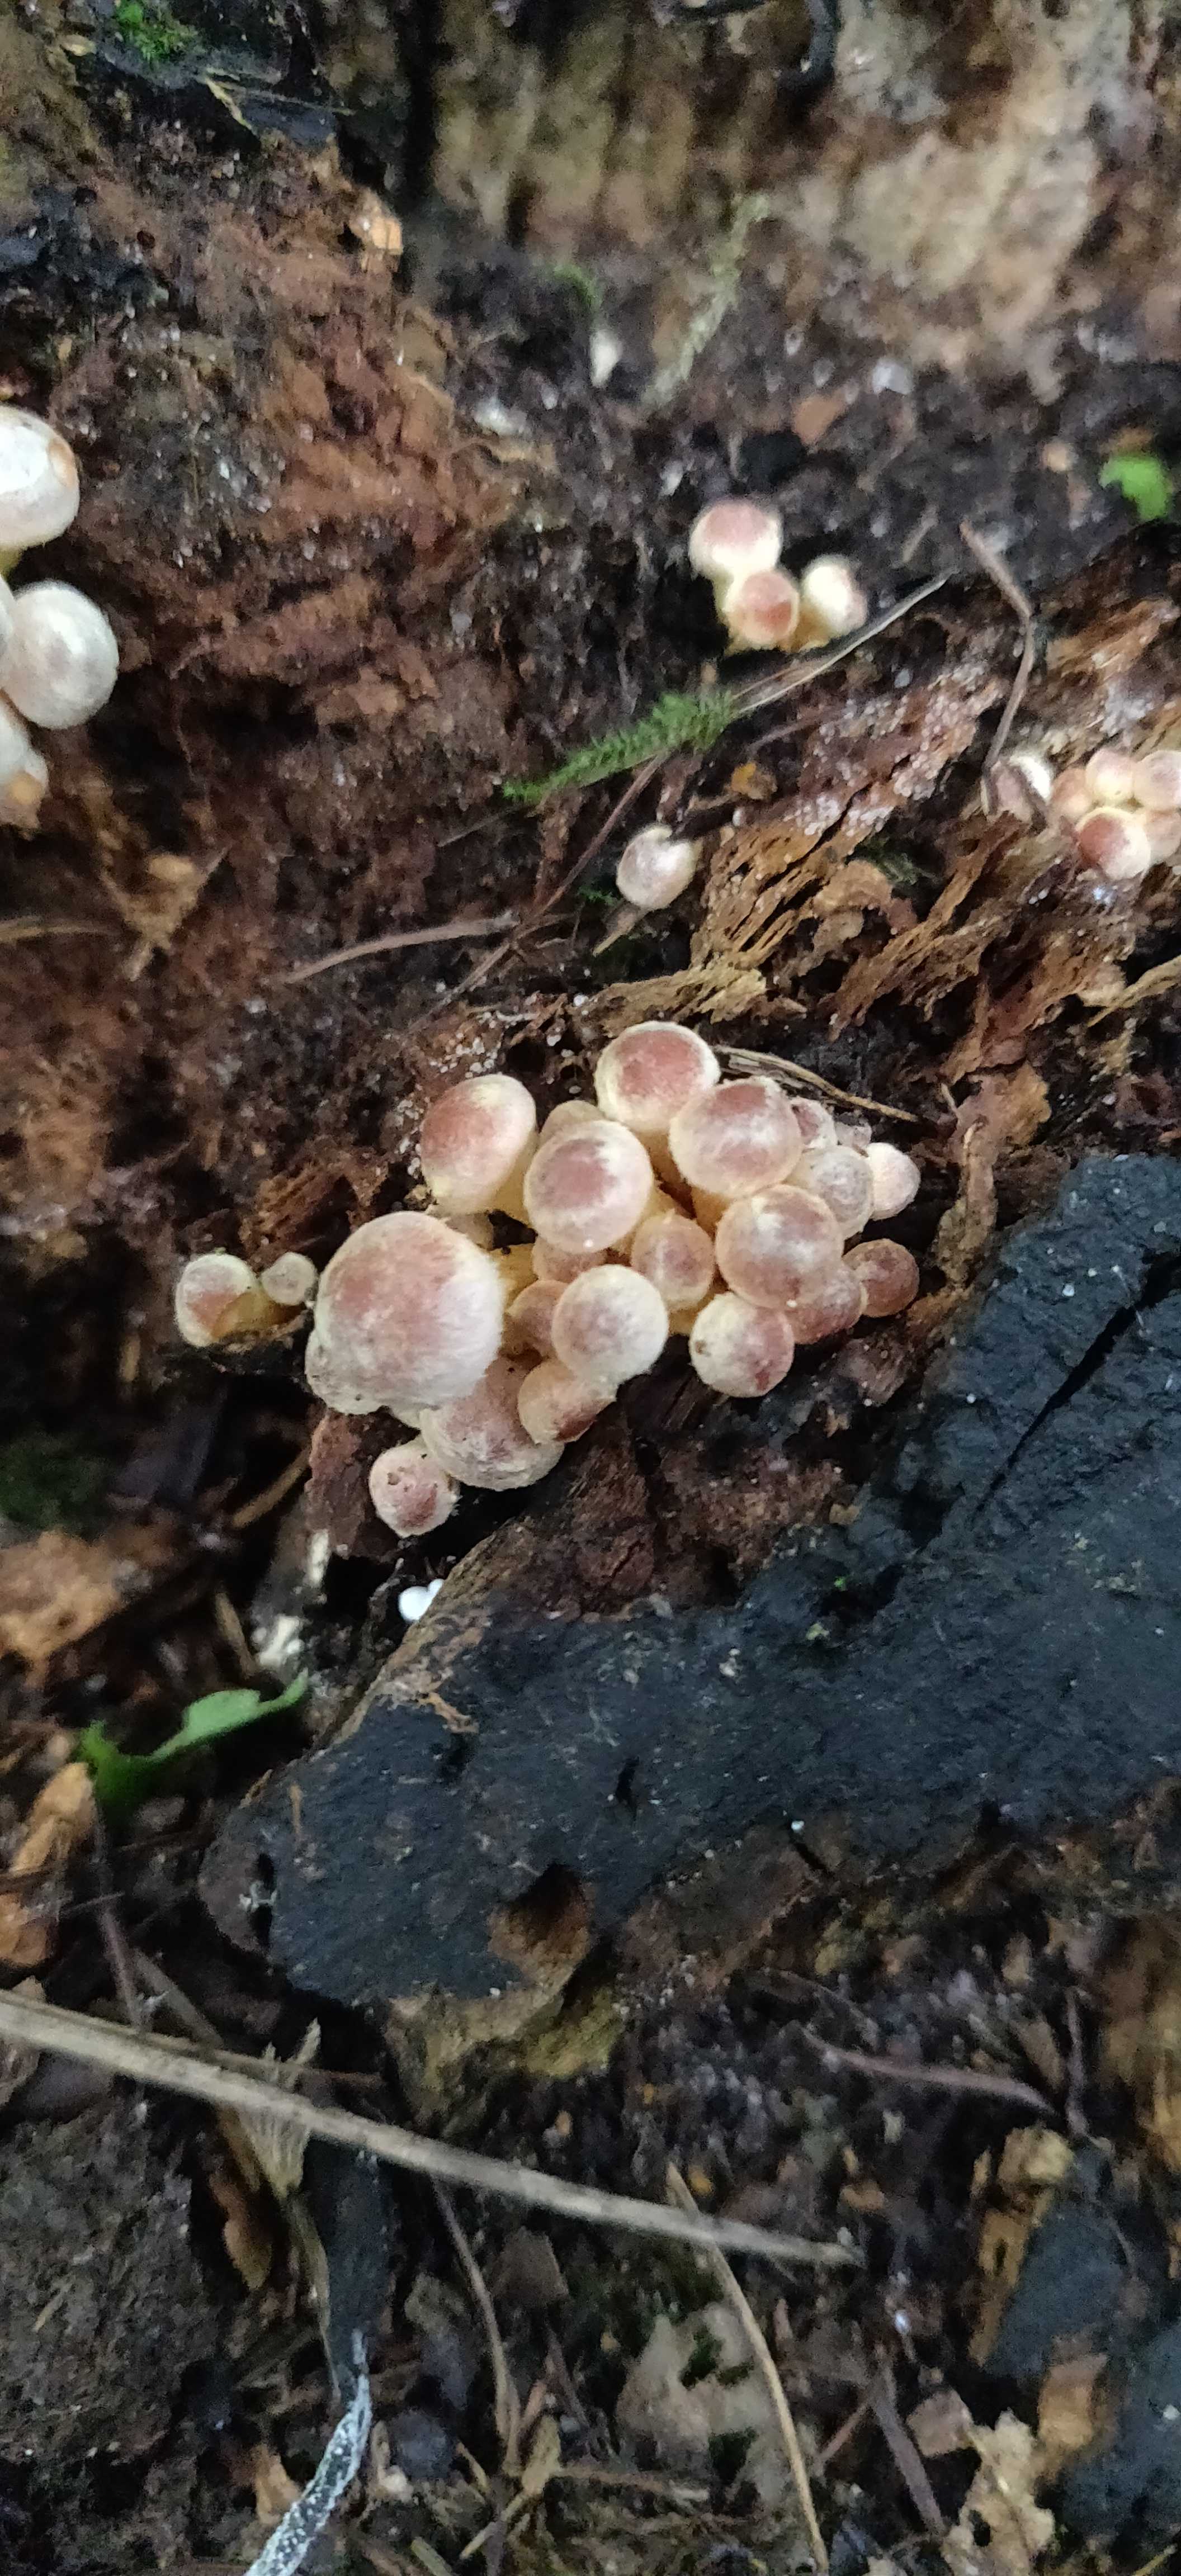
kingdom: Fungi
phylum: Basidiomycota
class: Agaricomycetes
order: Agaricales
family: Strophariaceae
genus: Hypholoma
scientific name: Hypholoma
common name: svovlhat
